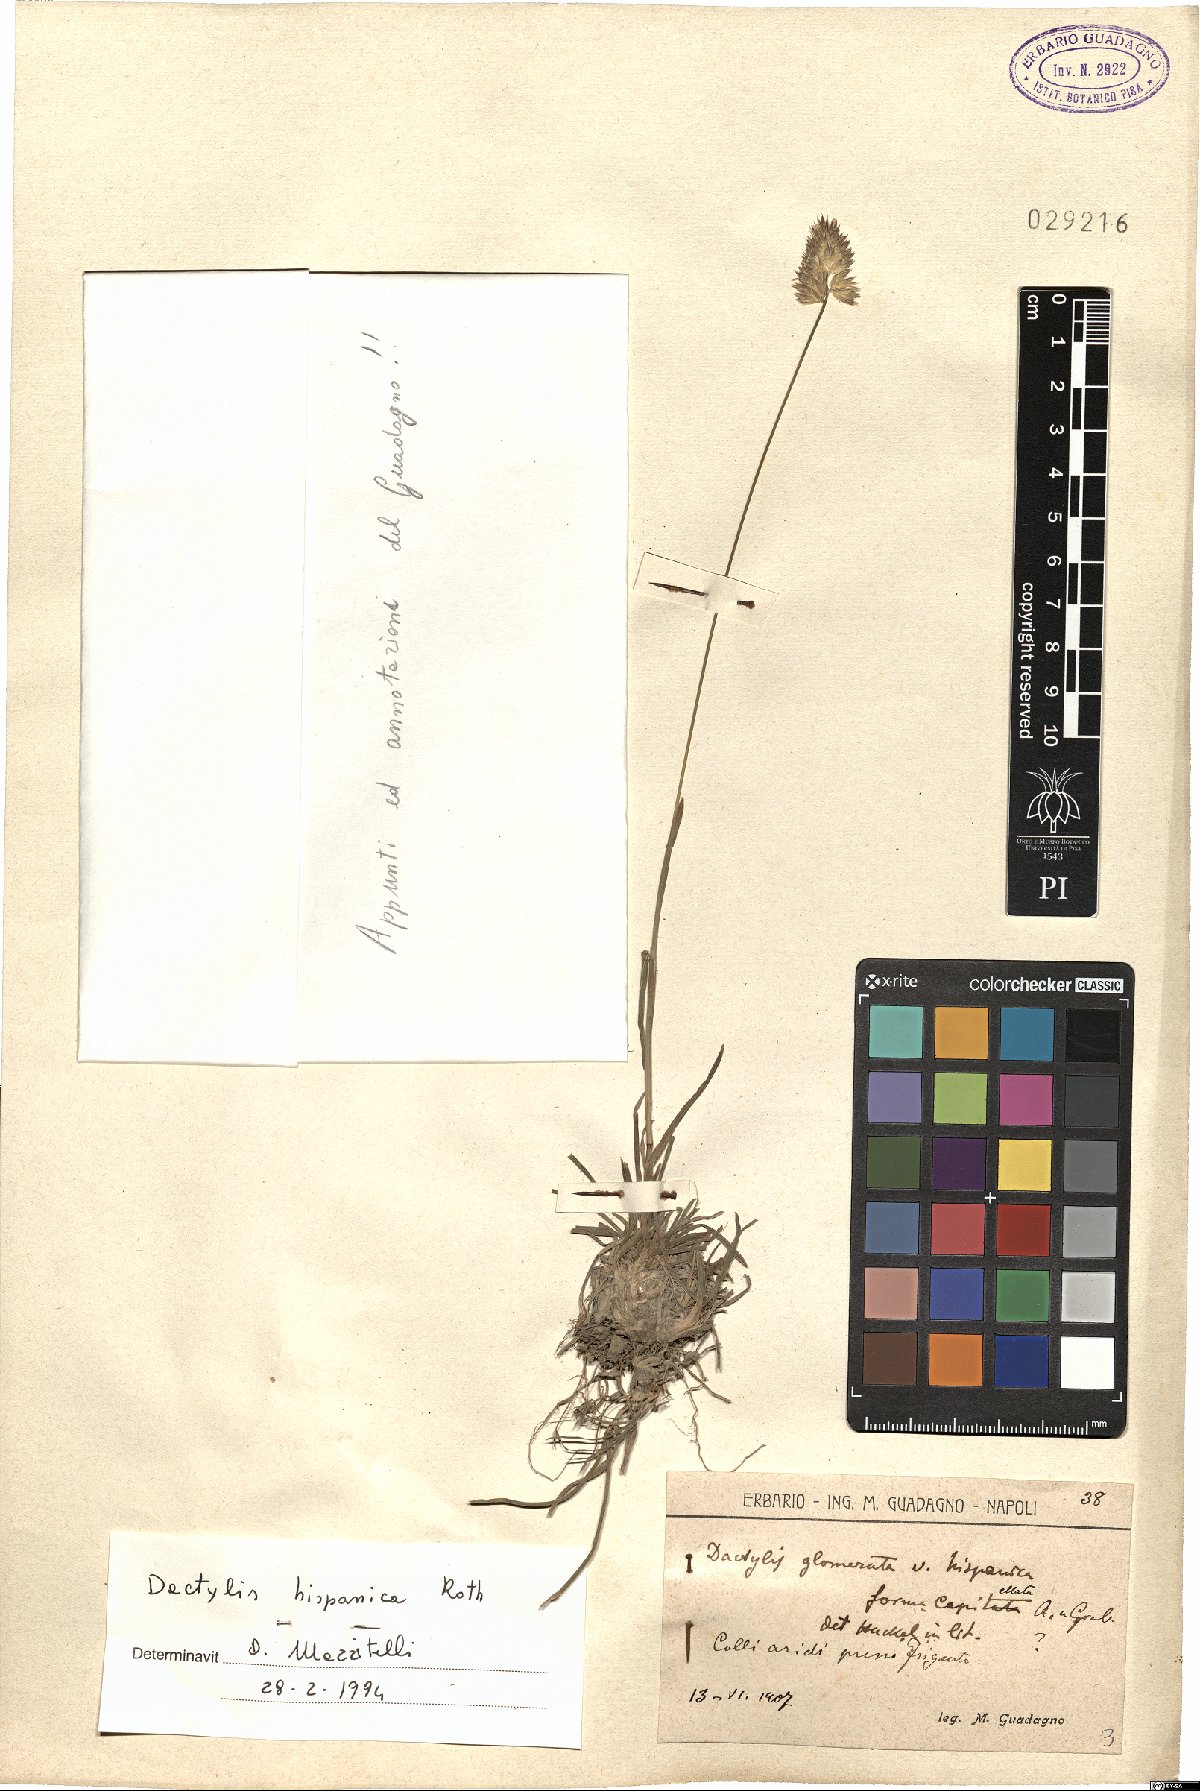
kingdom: Plantae
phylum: Tracheophyta
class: Liliopsida
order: Poales
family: Poaceae
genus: Dactylis
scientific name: Dactylis glomerata
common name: Orchardgrass
